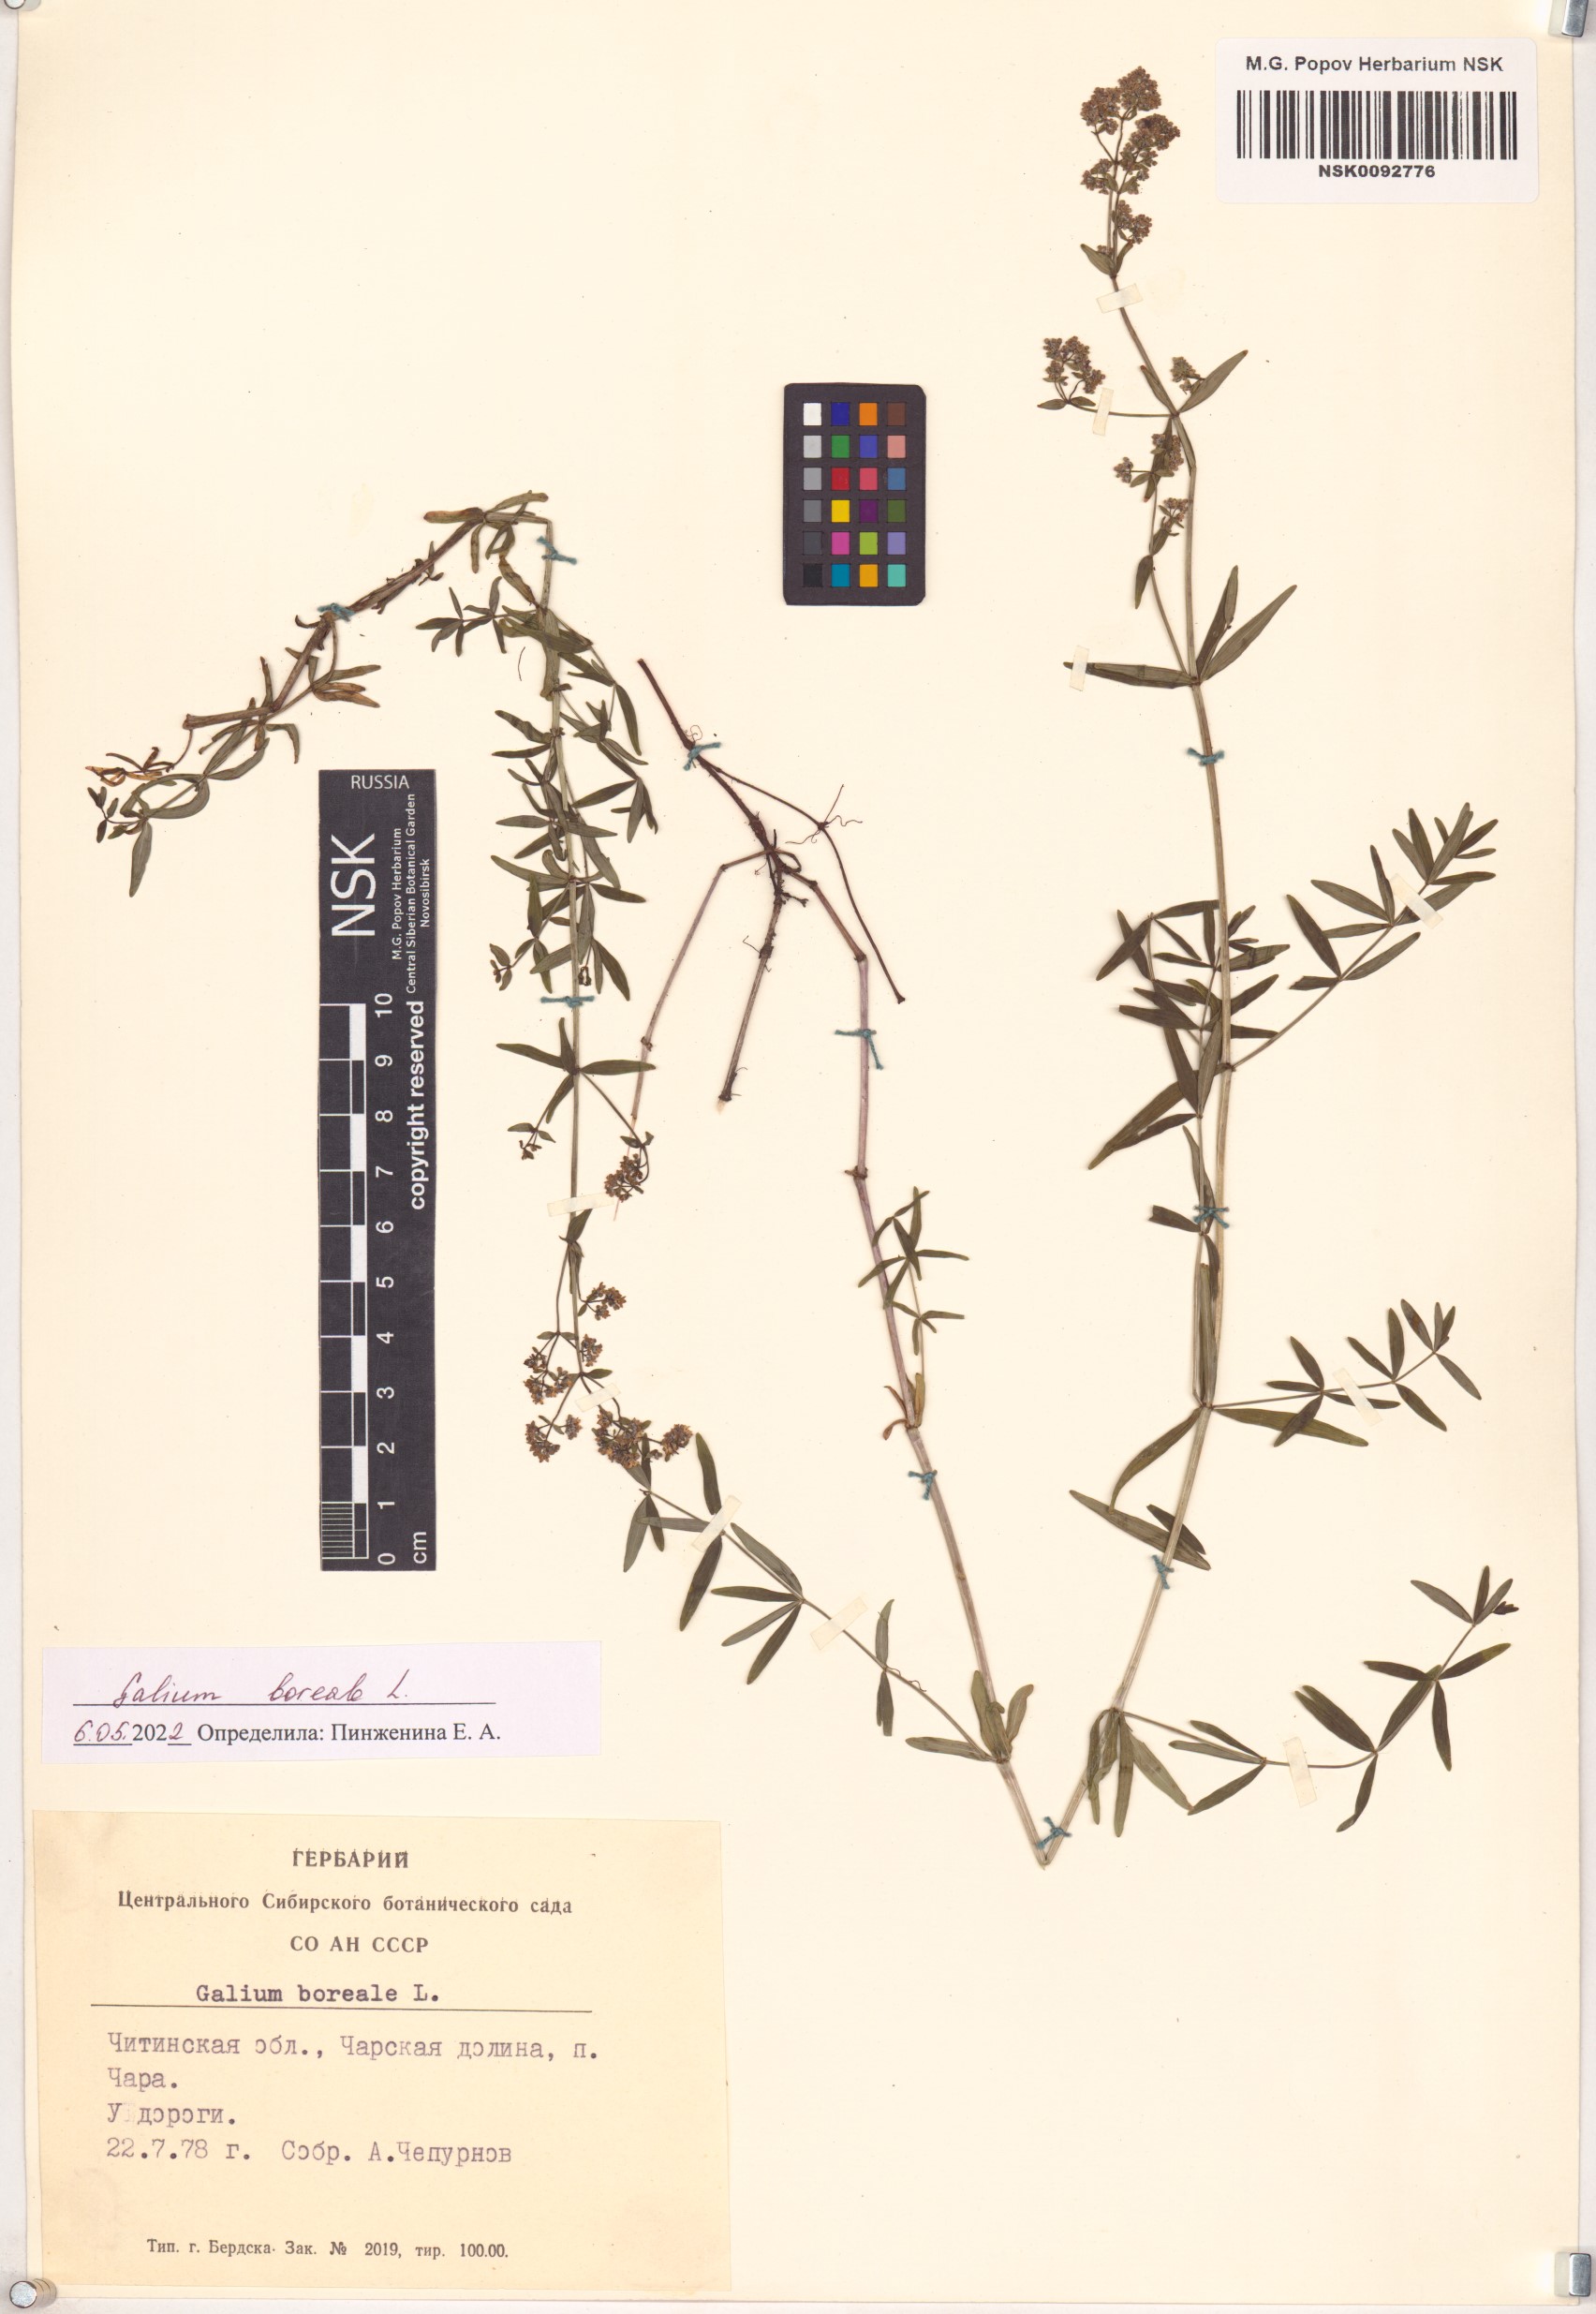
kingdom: Plantae
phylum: Tracheophyta
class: Magnoliopsida
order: Gentianales
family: Rubiaceae
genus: Galium
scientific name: Galium boreale
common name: Northern bedstraw
